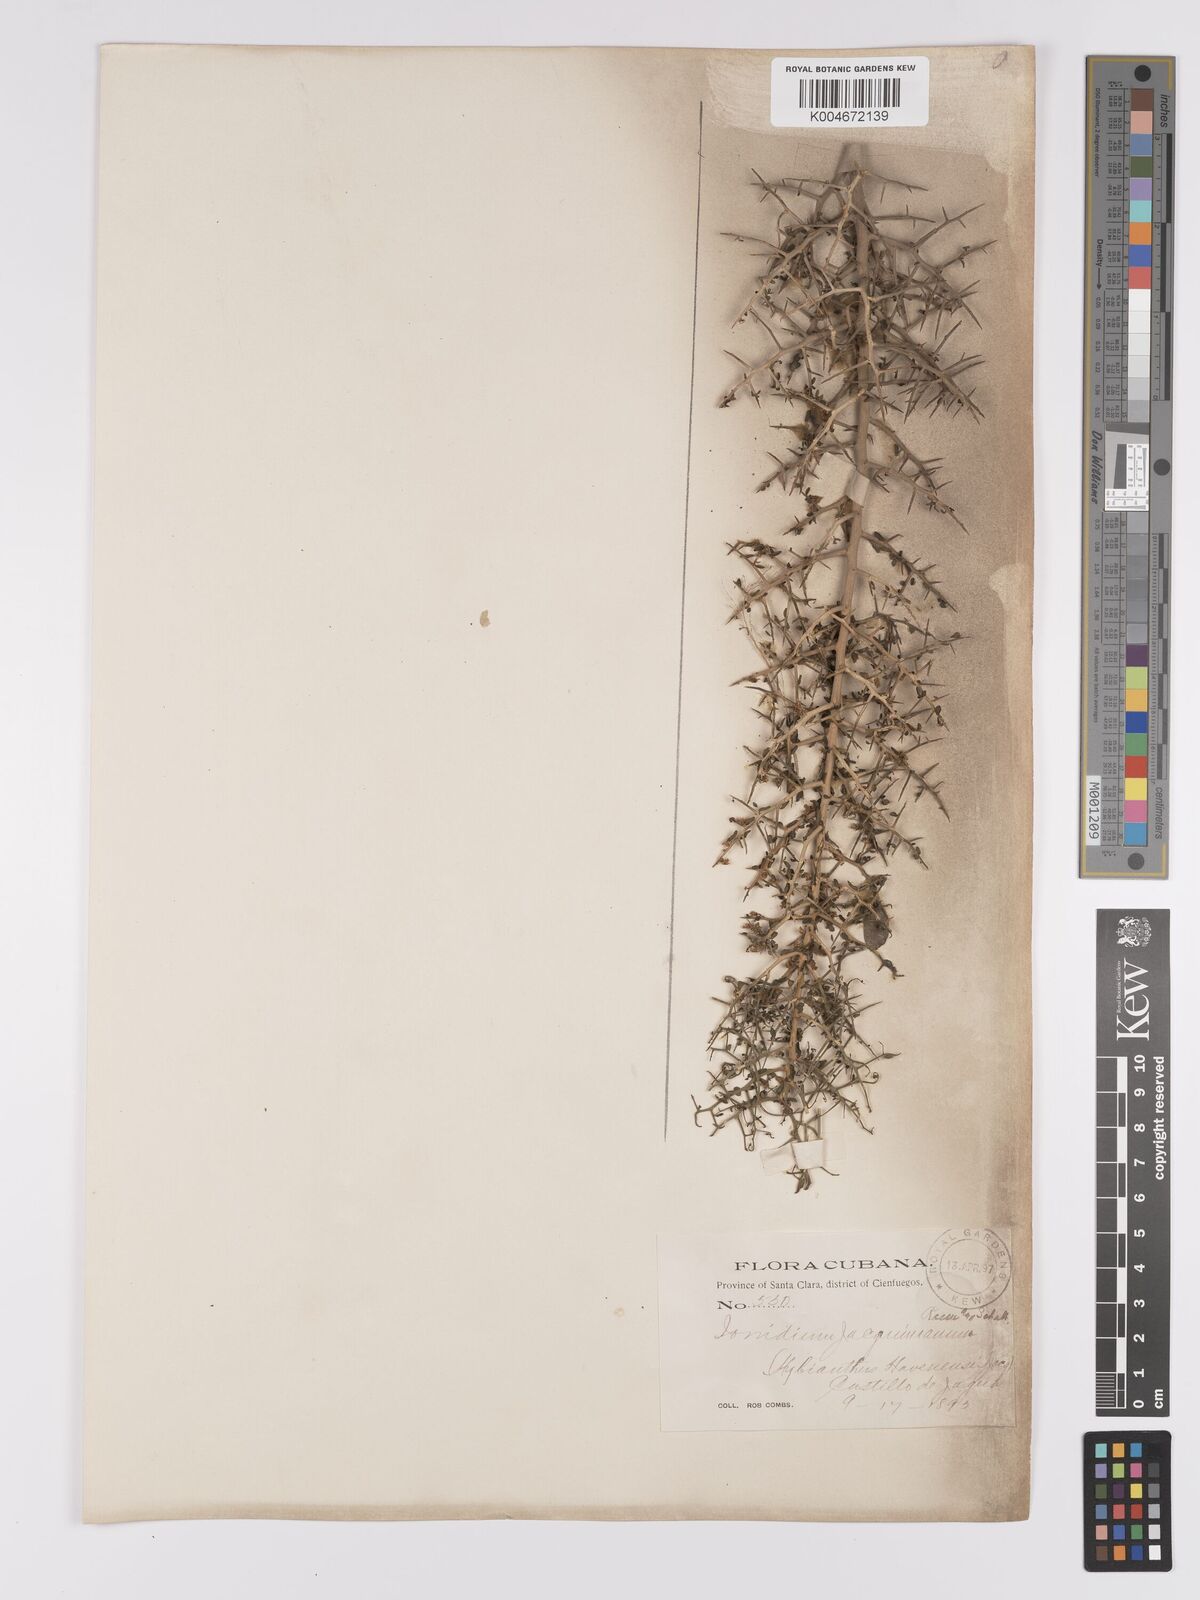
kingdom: Plantae
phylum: Tracheophyta
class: Magnoliopsida
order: Malpighiales
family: Violaceae
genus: Hybanthus
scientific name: Hybanthus havanensis
